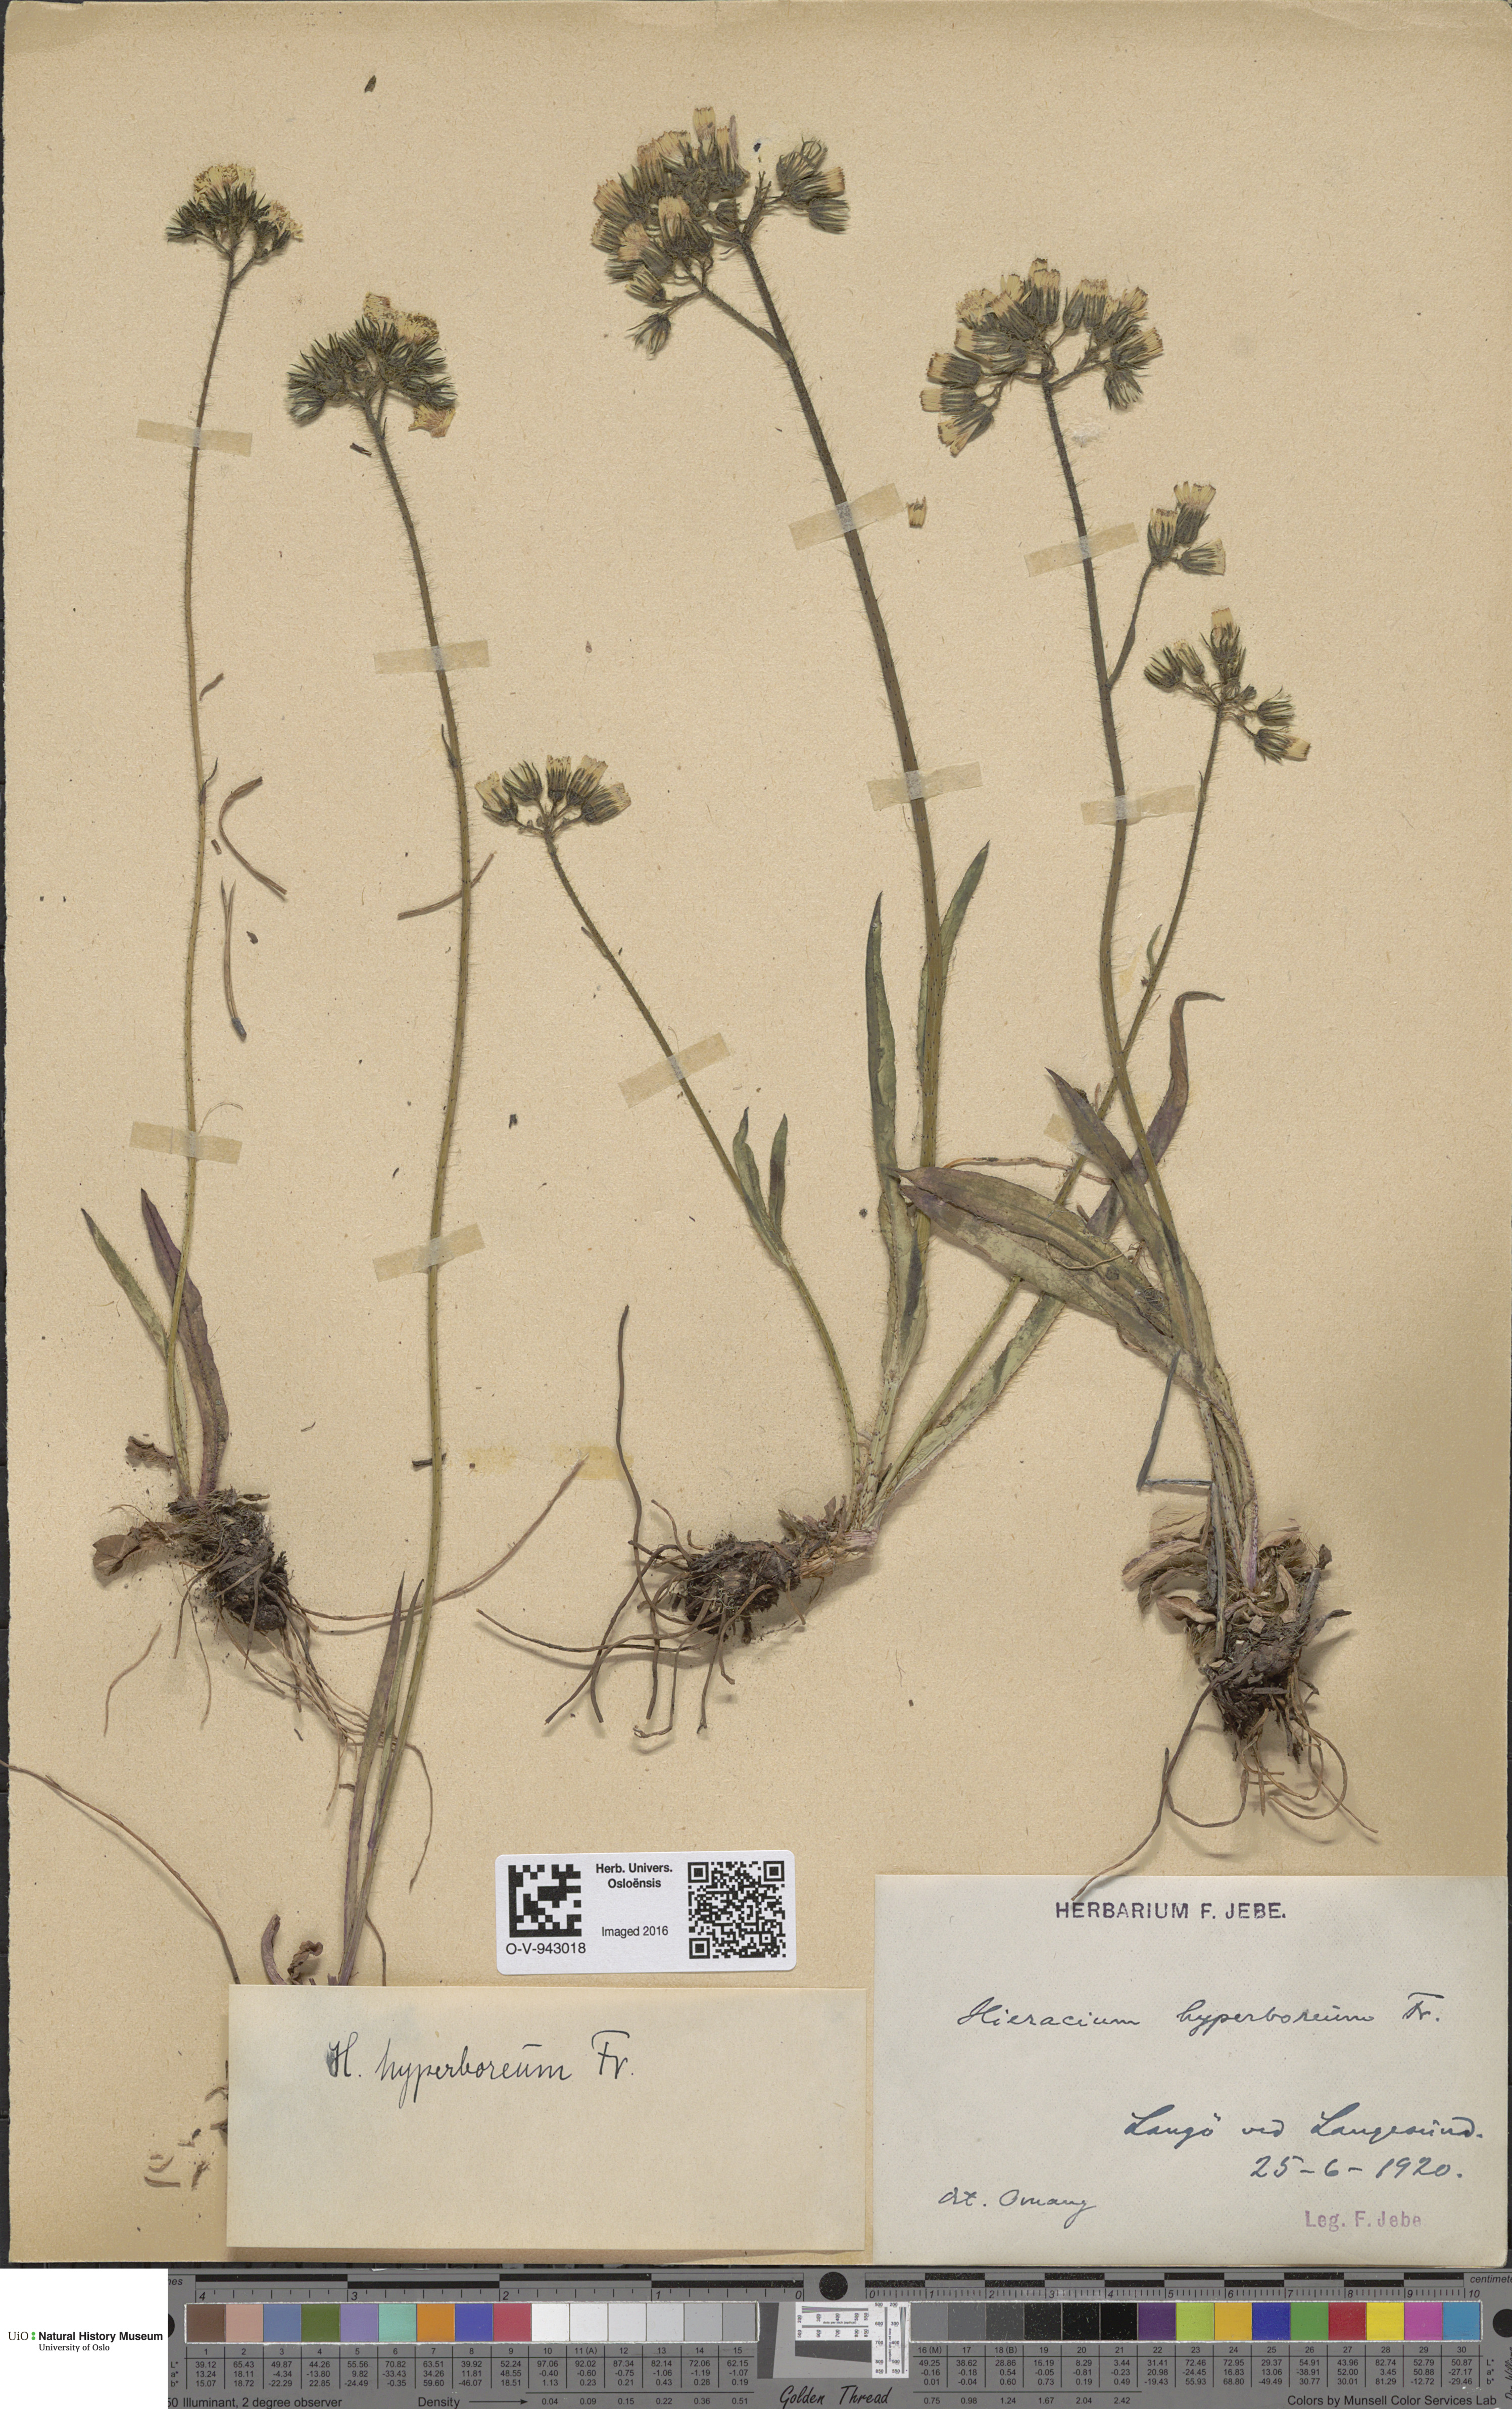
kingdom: Plantae
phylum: Tracheophyta
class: Magnoliopsida
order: Asterales
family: Asteraceae
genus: Pilosella
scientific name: Pilosella hyperborea
